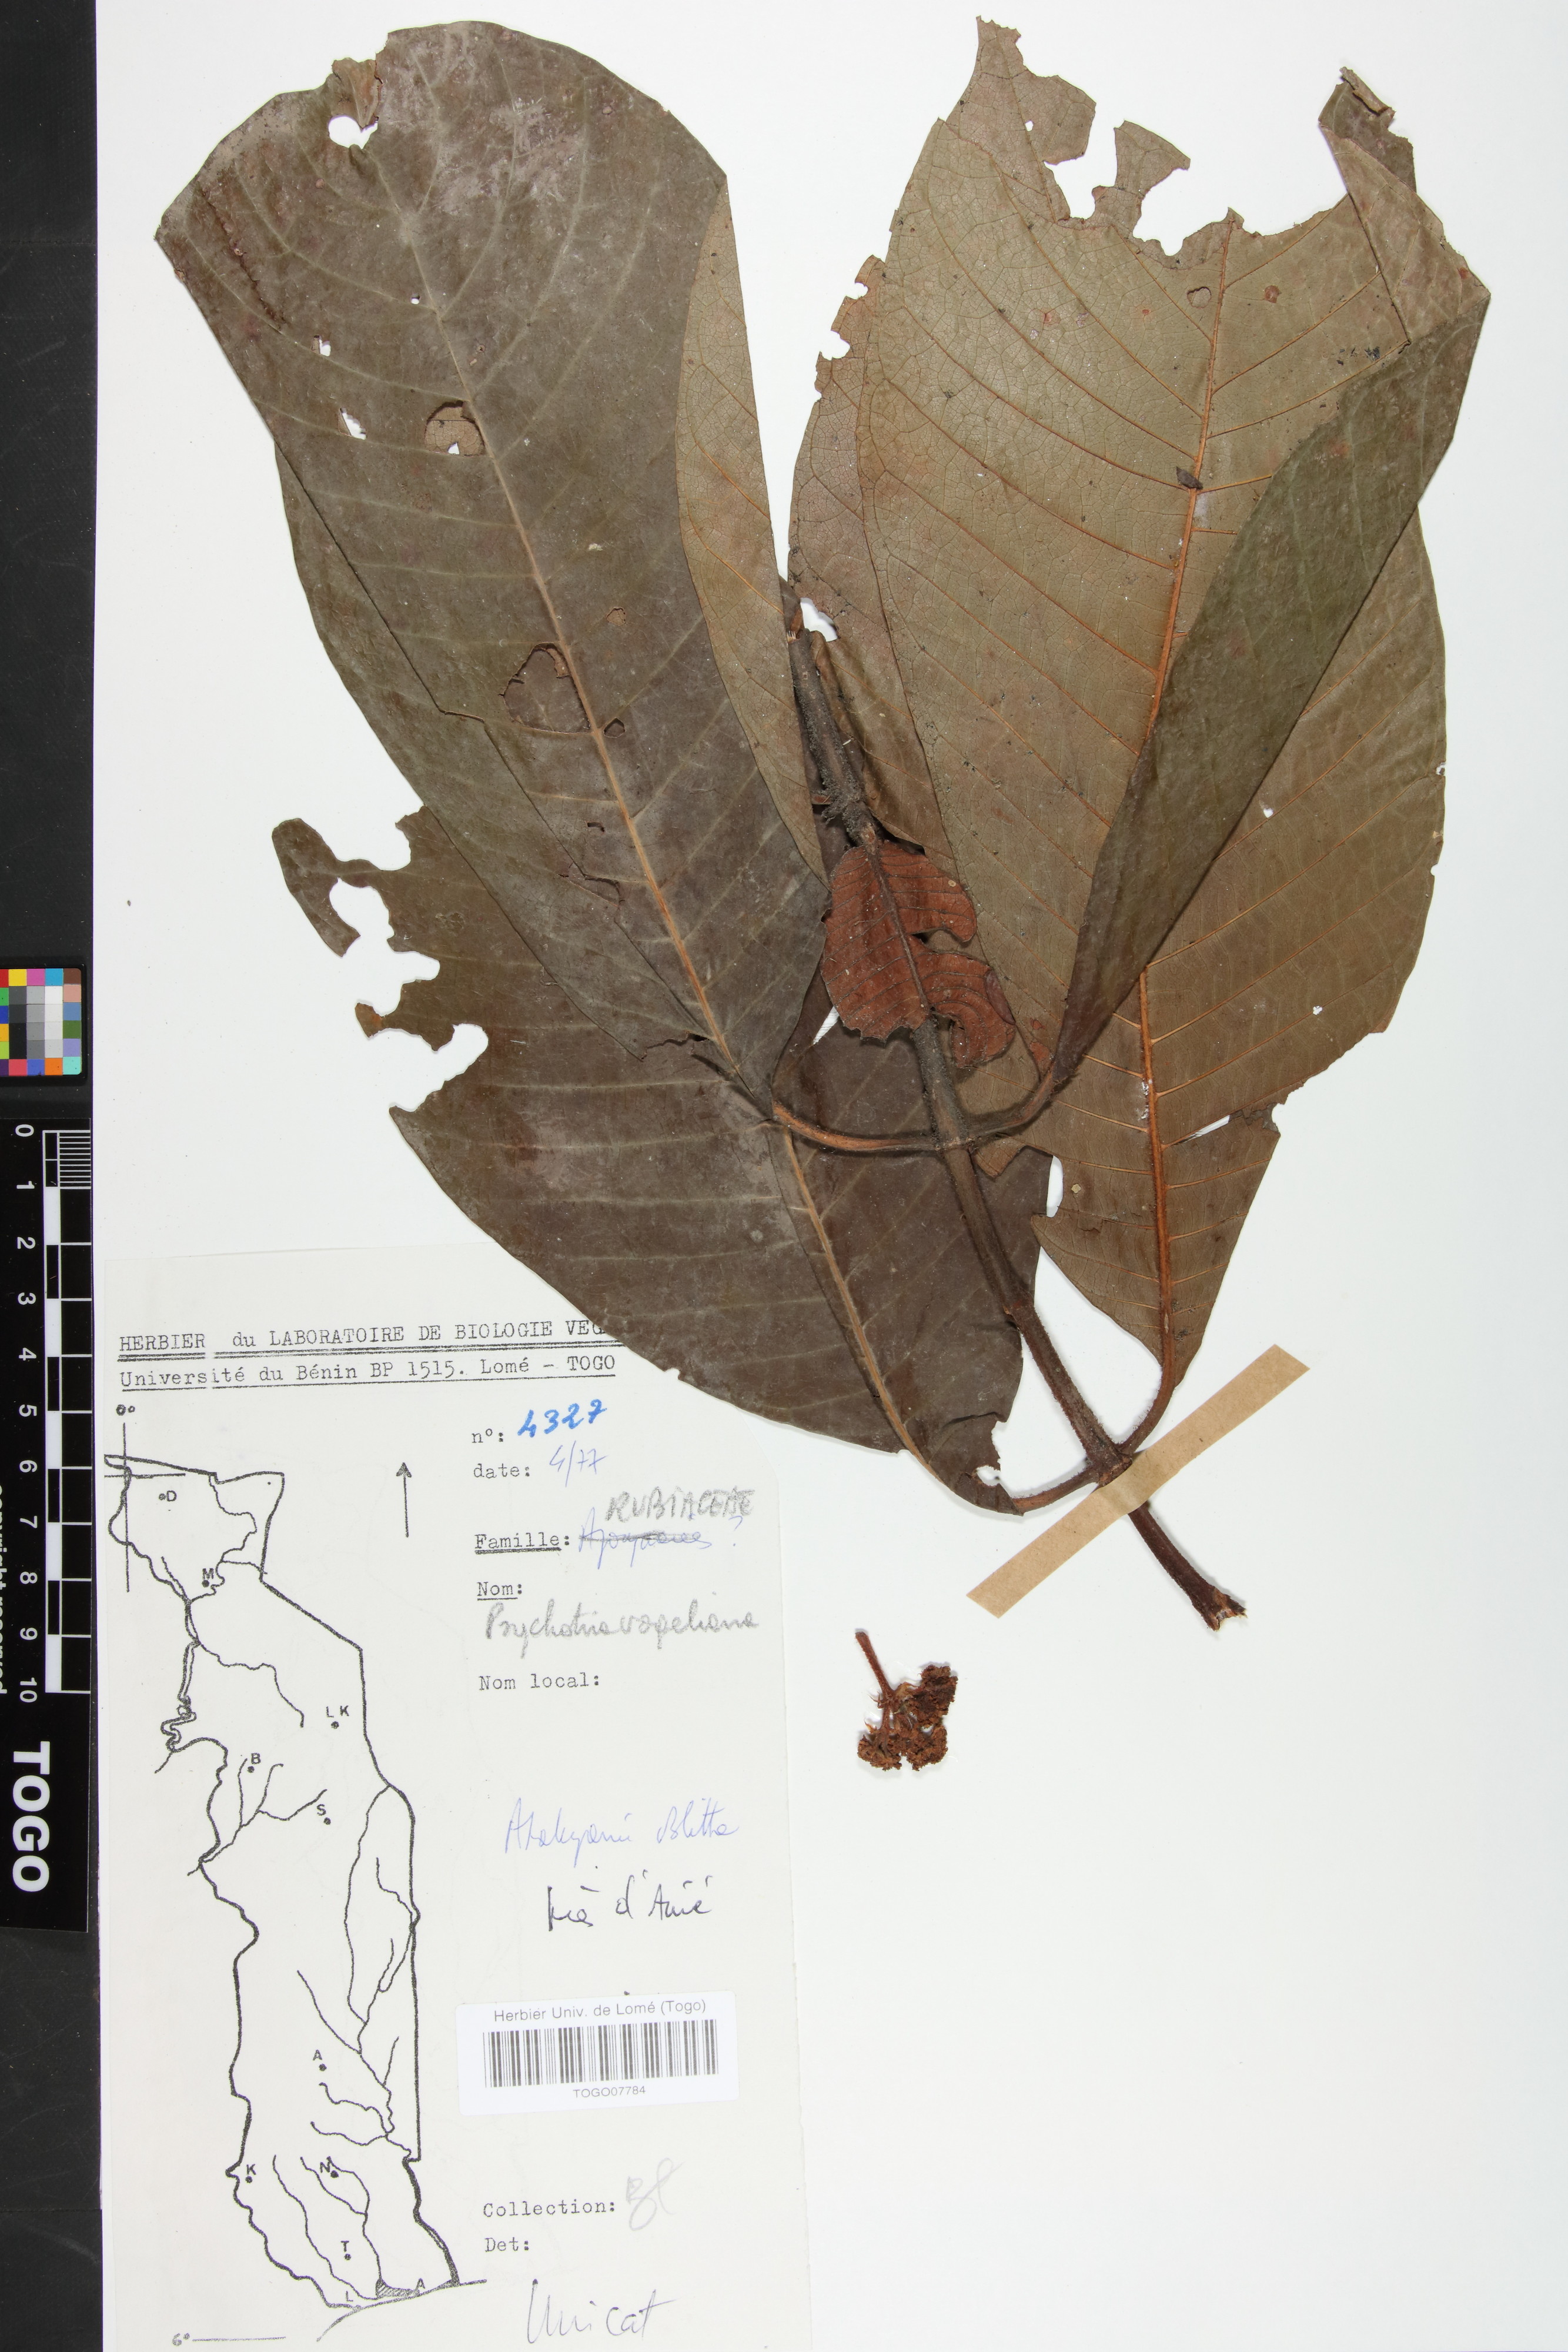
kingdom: Plantae
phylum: Tracheophyta
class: Magnoliopsida
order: Gentianales
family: Rubiaceae
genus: Psychotria
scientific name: Psychotria vogeliana
